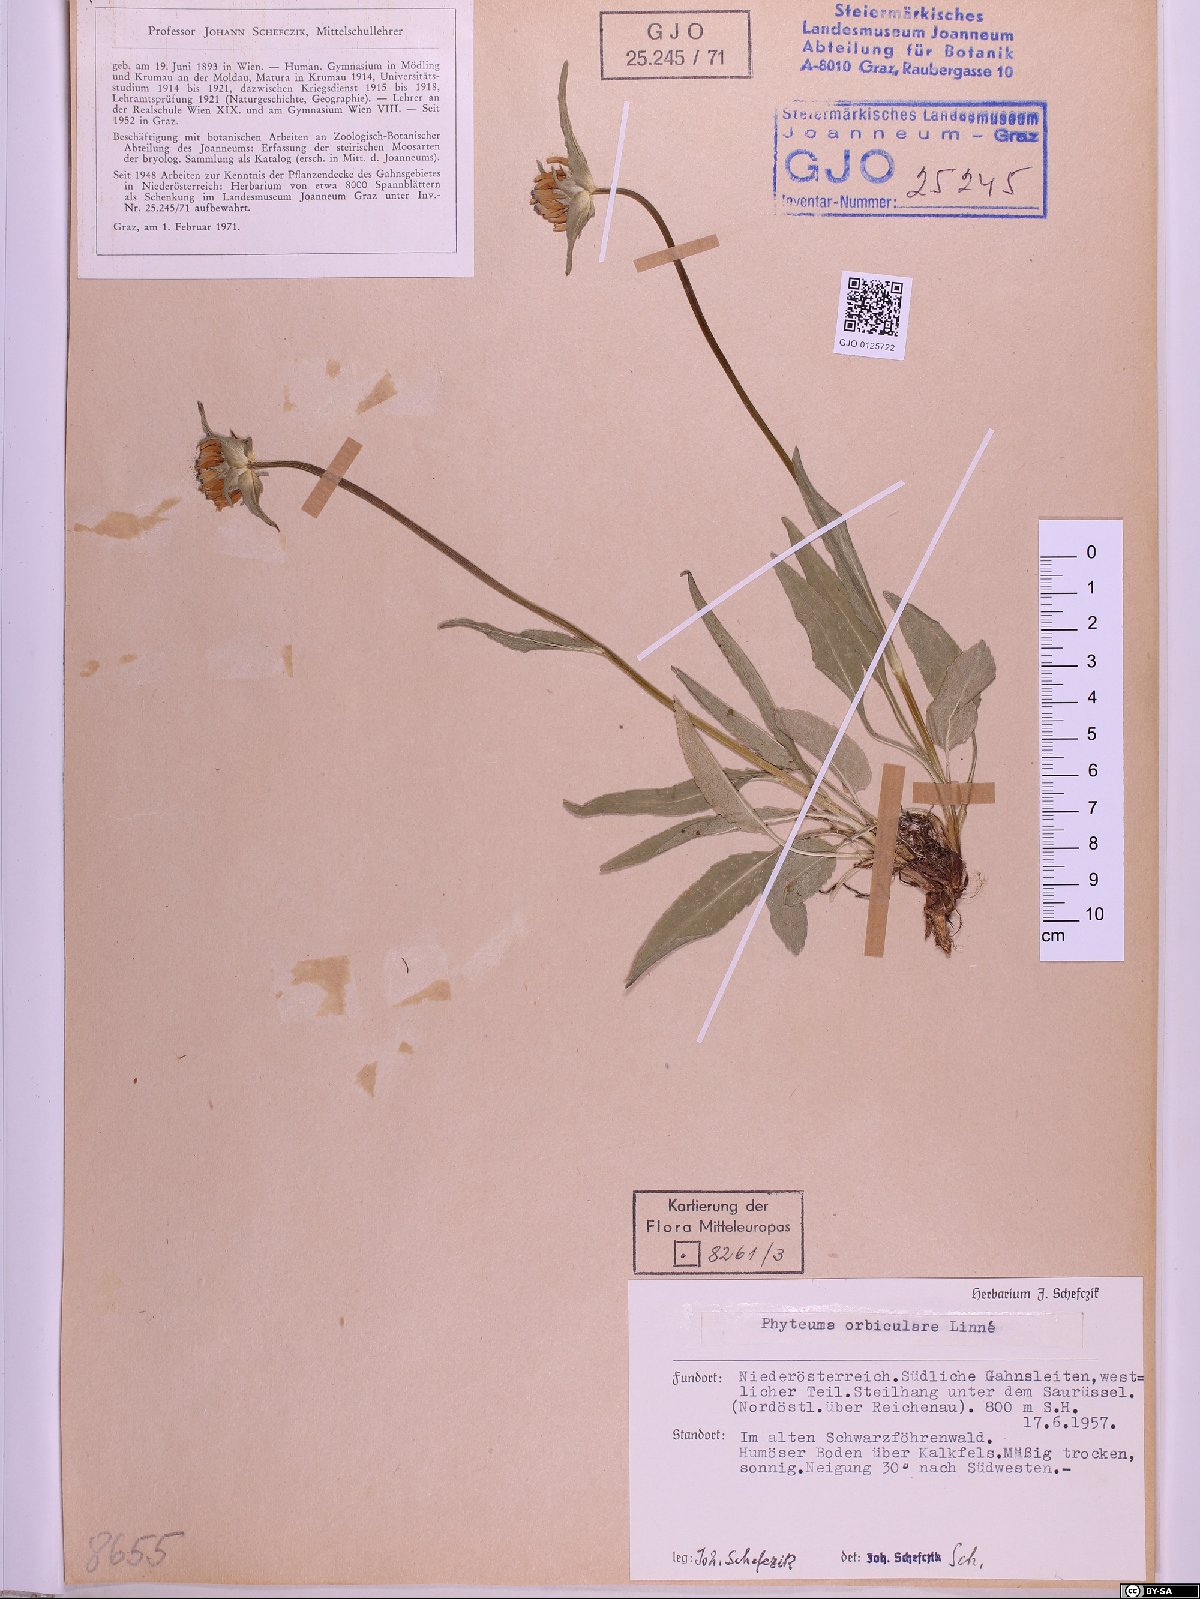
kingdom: Plantae
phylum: Tracheophyta
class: Magnoliopsida
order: Asterales
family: Campanulaceae
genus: Phyteuma
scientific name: Phyteuma orbiculare
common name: Round-headed rampion
